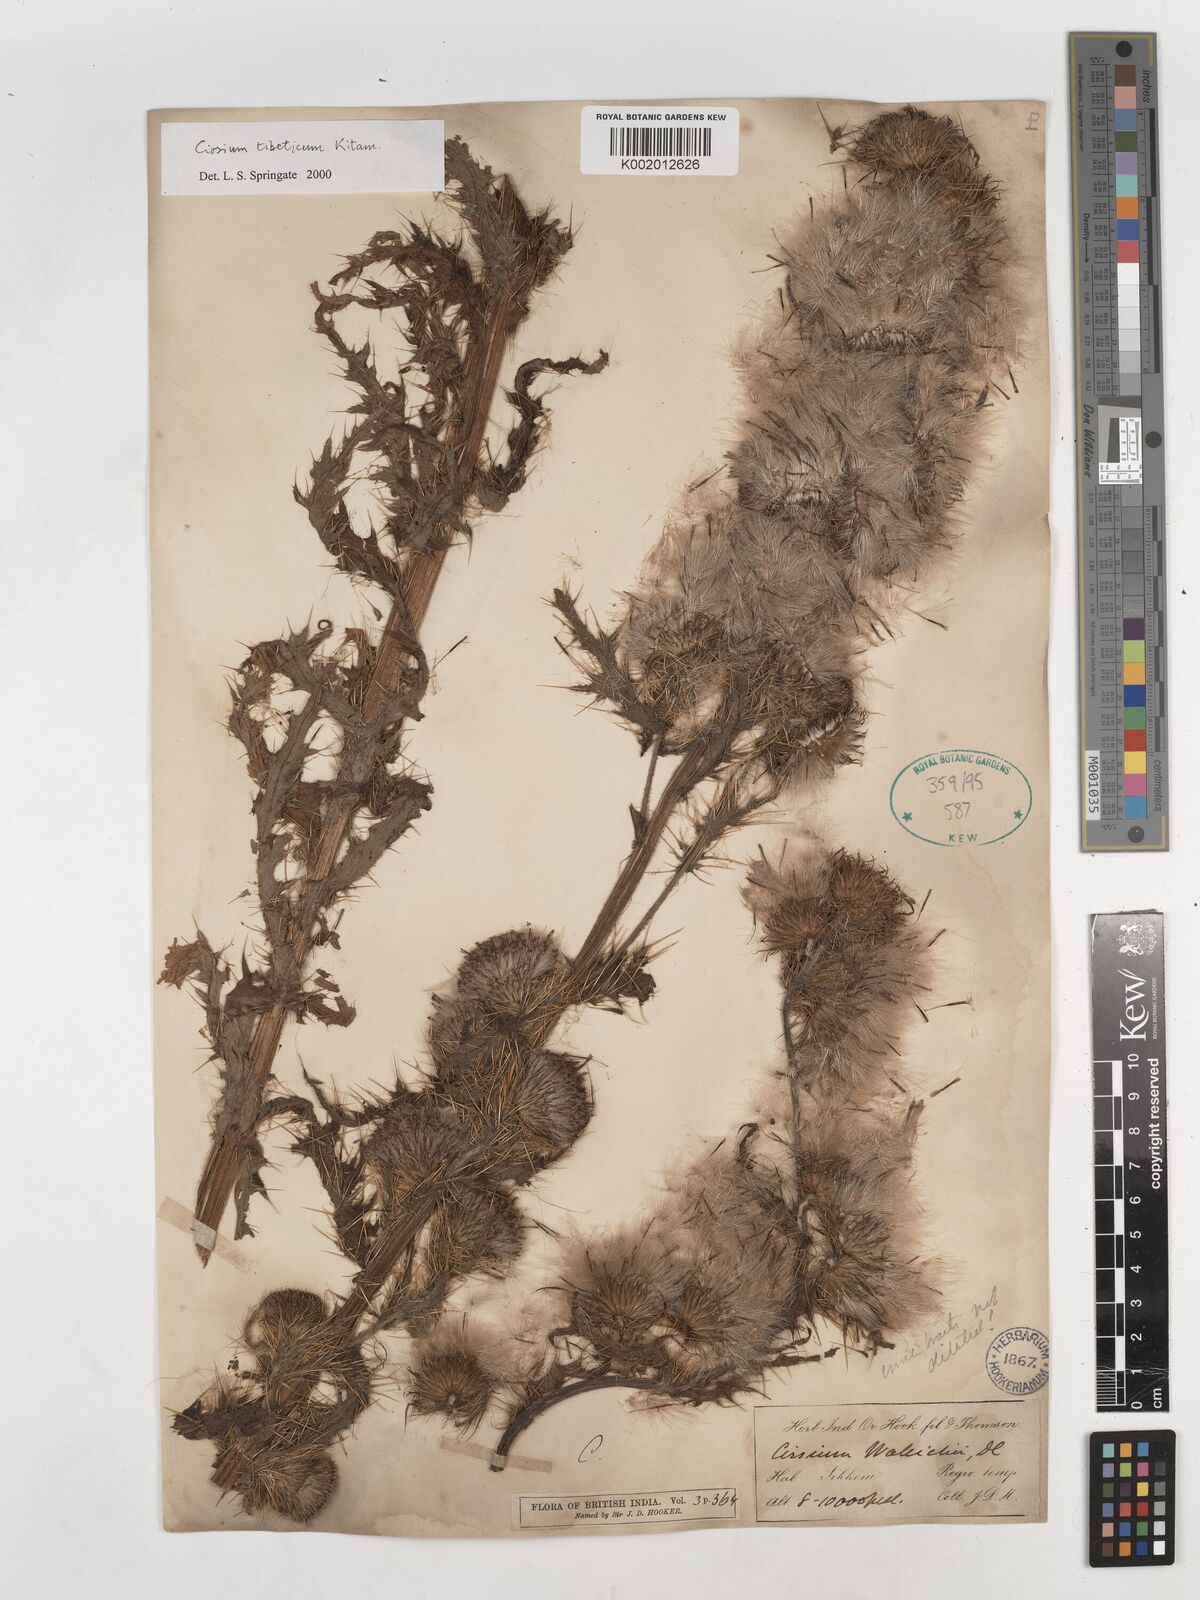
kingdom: Plantae
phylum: Tracheophyta
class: Magnoliopsida
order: Asterales
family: Asteraceae
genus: Cirsium
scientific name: Cirsium wallichii
